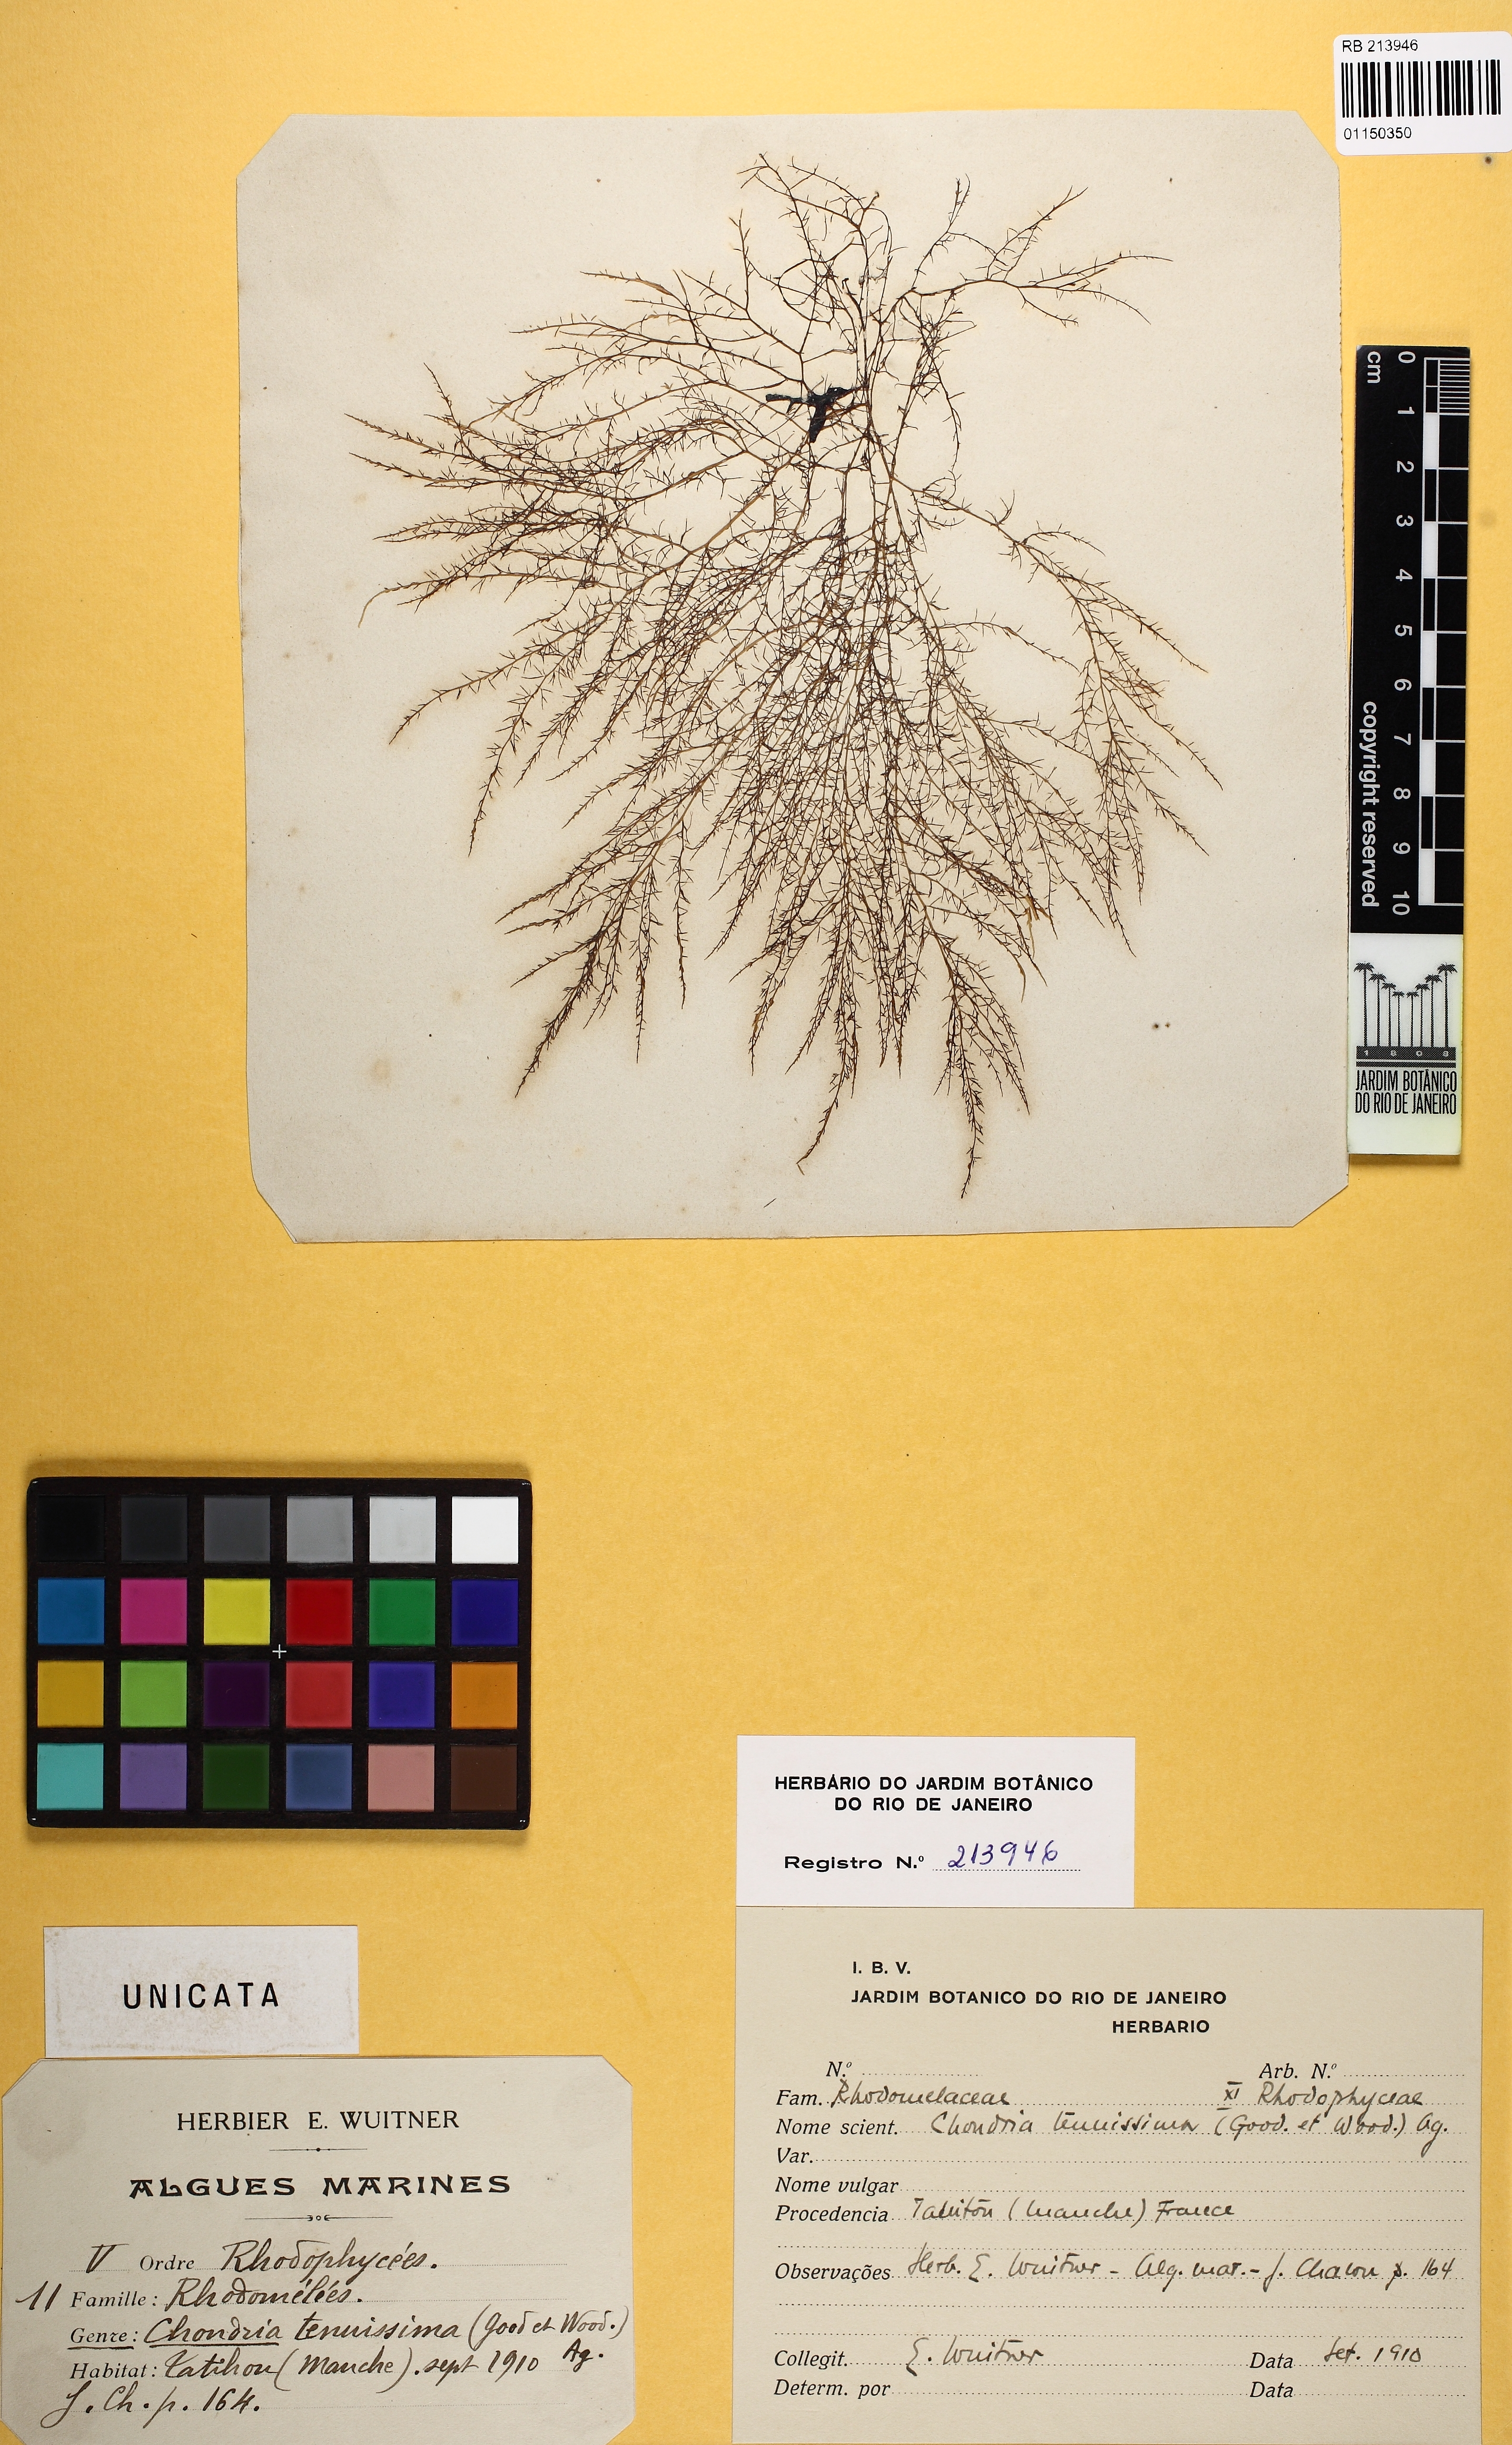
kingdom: Plantae
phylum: Rhodophyta
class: Florideophyceae
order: Ceramiales
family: Rhodomelaceae
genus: Chondria
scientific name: Chondria capillaris
